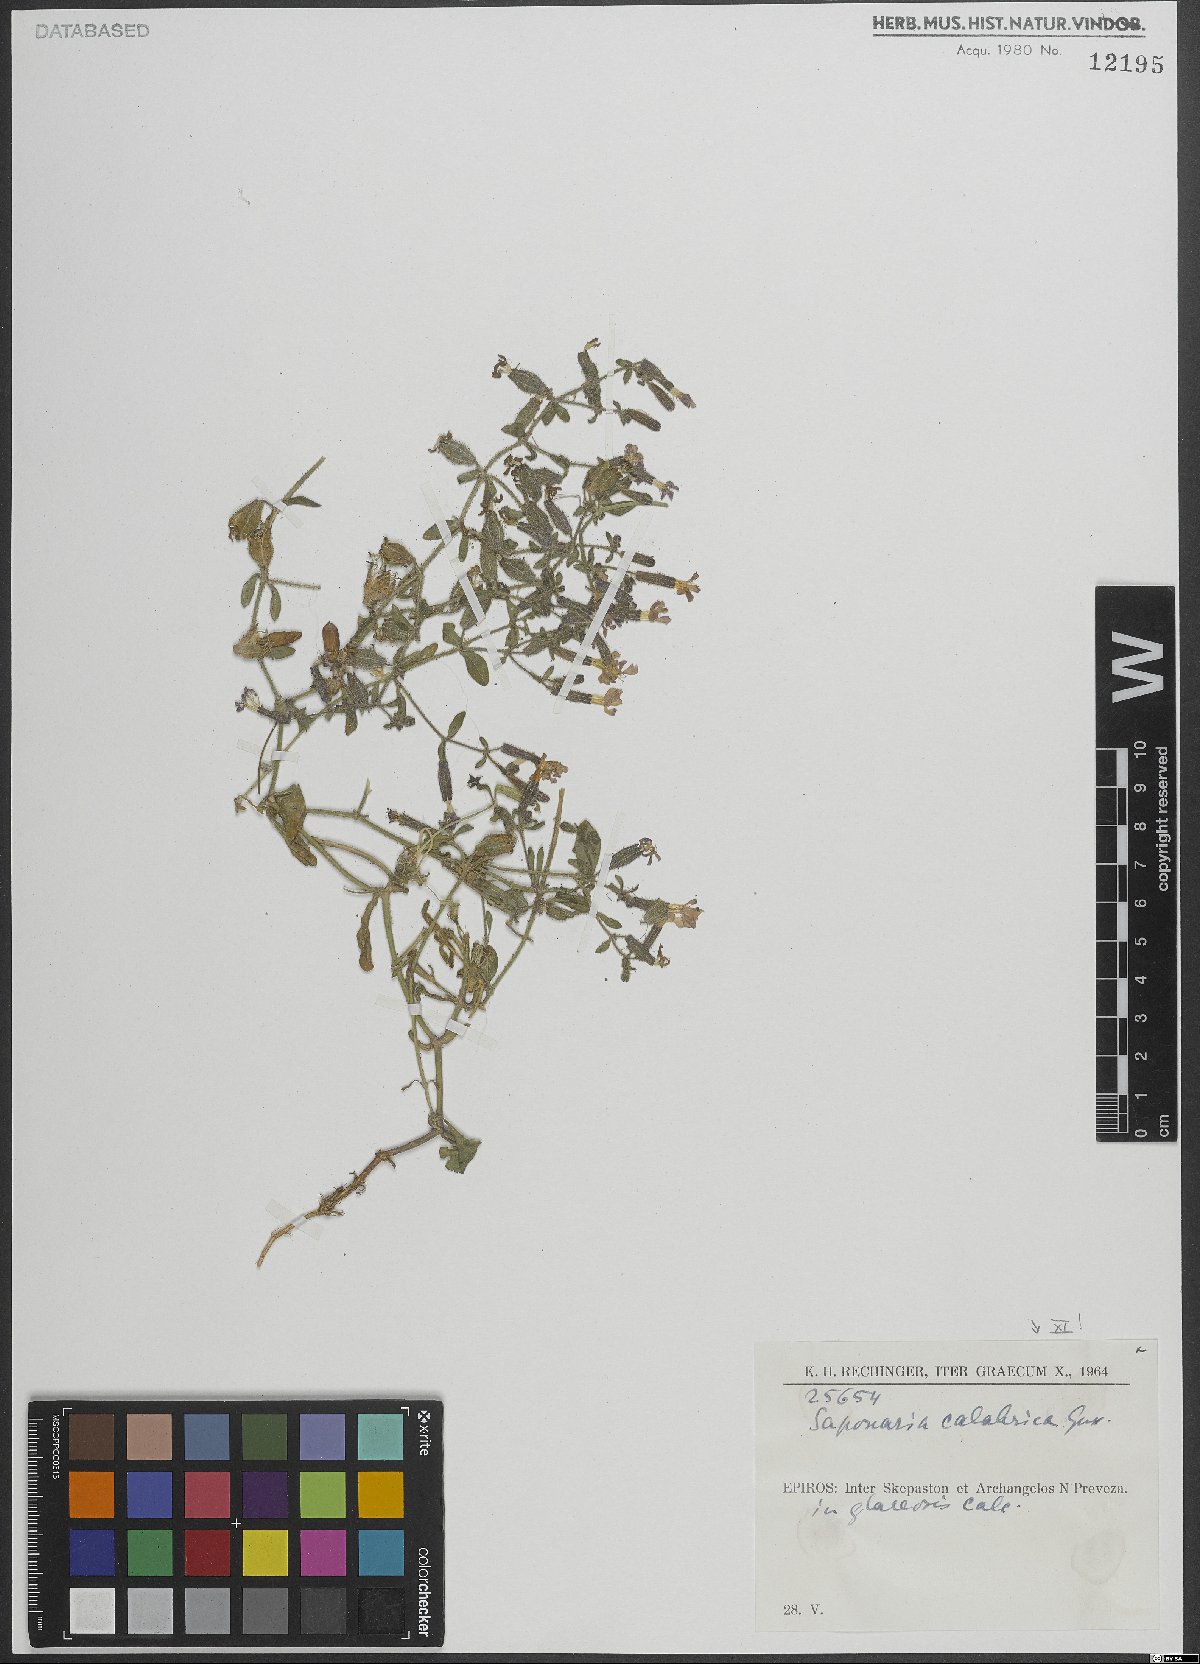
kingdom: Plantae
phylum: Tracheophyta
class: Magnoliopsida
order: Caryophyllales
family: Caryophyllaceae
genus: Saponaria
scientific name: Saponaria calabrica
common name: Adriatic soapwort
